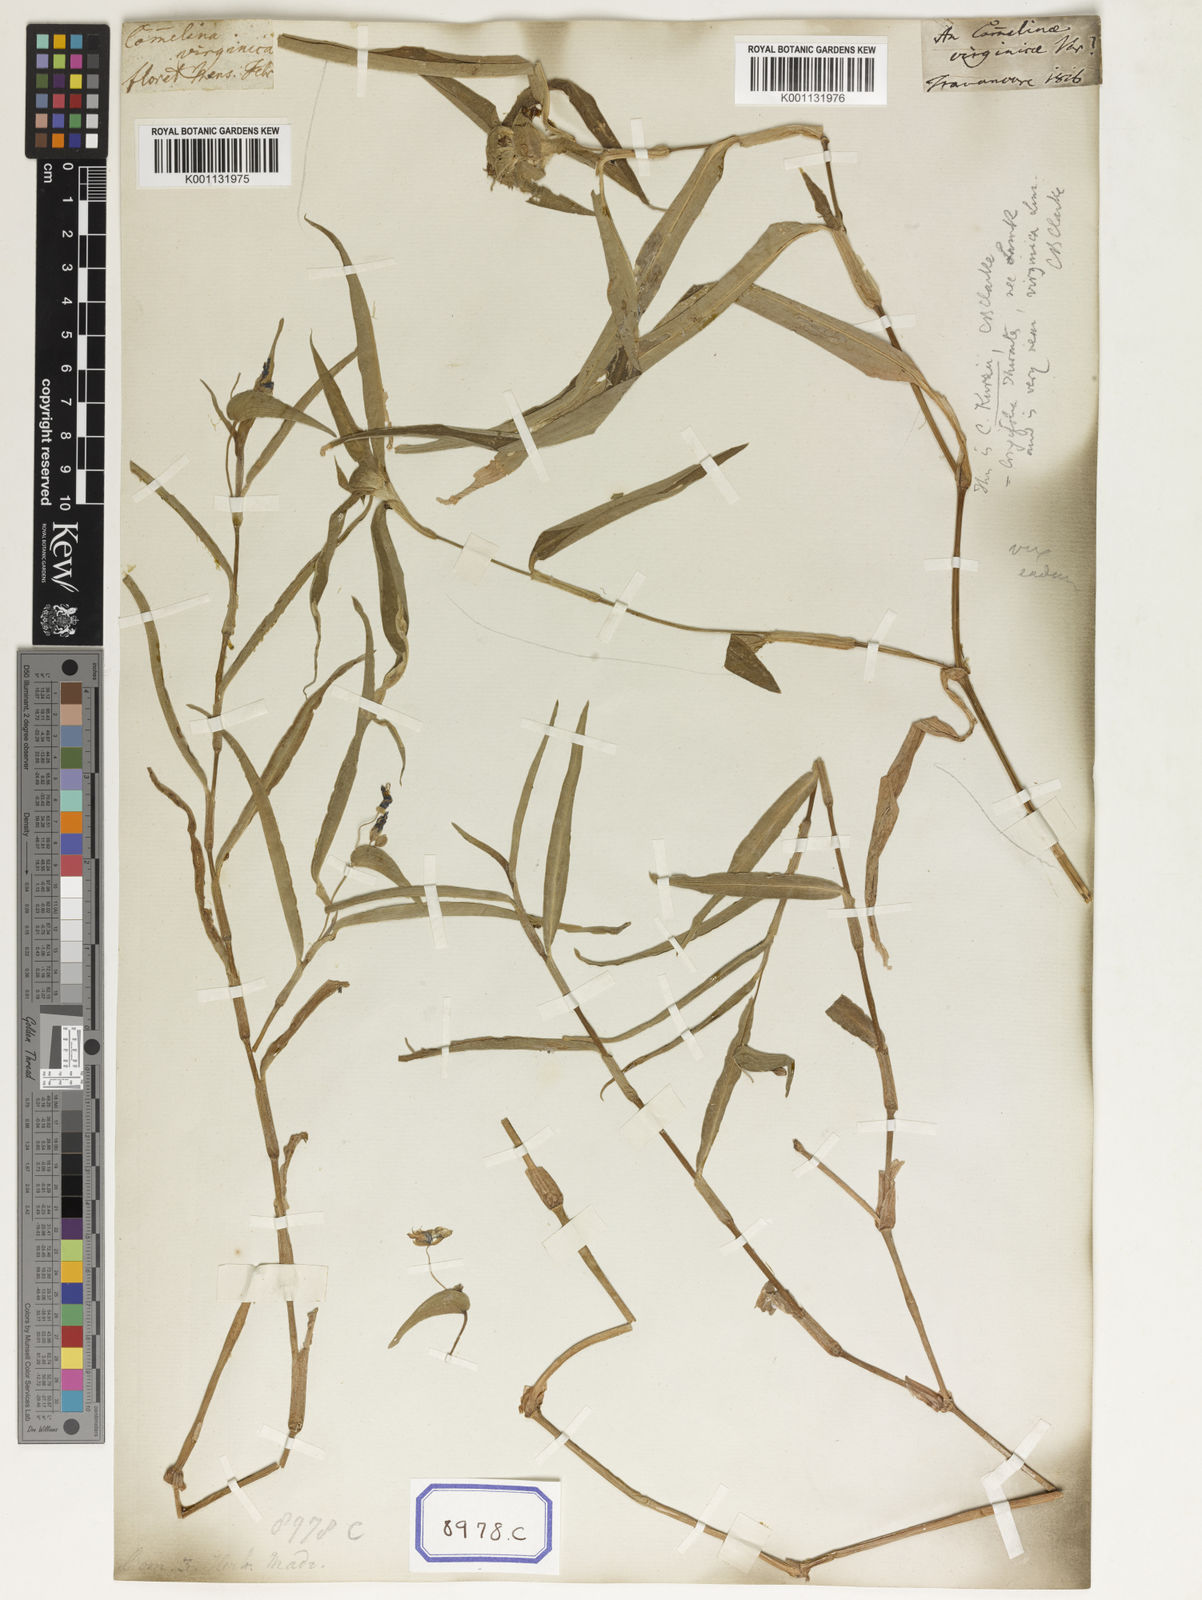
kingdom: Plantae
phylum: Tracheophyta
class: Liliopsida
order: Commelinales
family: Commelinaceae
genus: Commelina
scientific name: Commelina communis
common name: Asiatic dayflower
